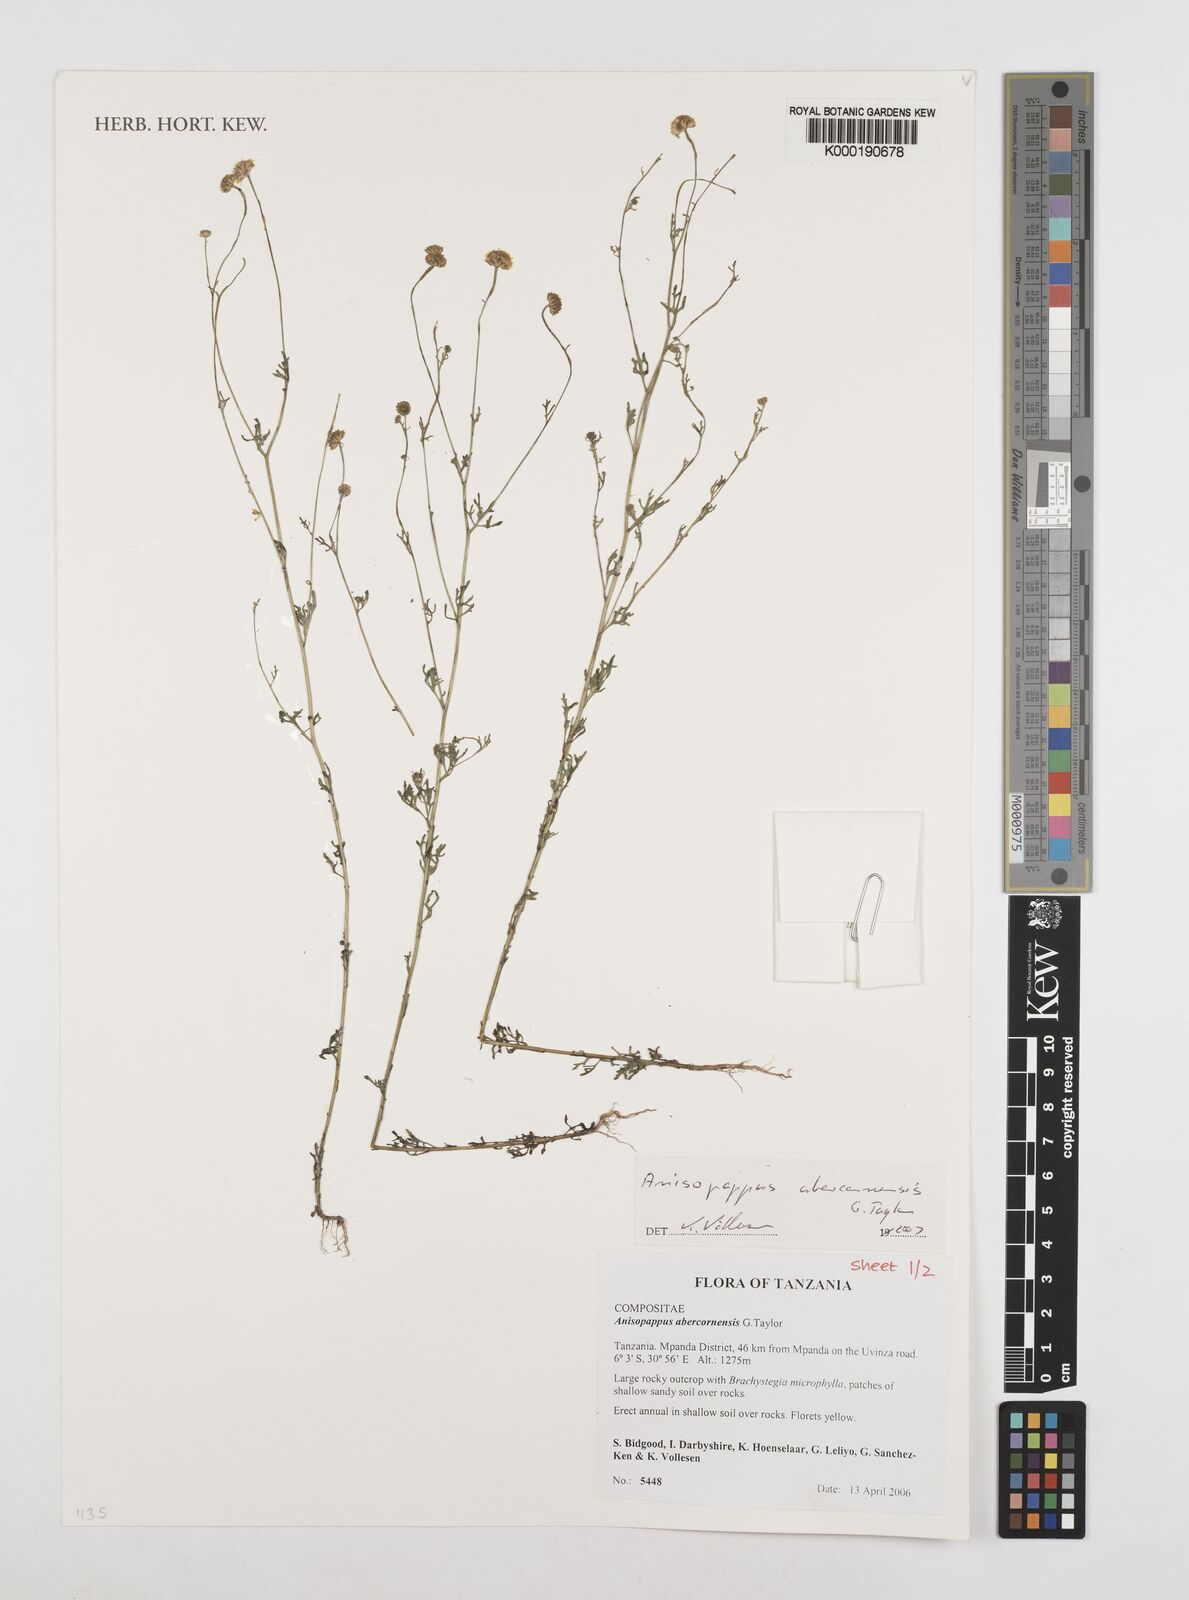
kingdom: Plantae
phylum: Tracheophyta
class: Magnoliopsida
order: Asterales
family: Asteraceae
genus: Anisopappus
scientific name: Anisopappus abercornensis
